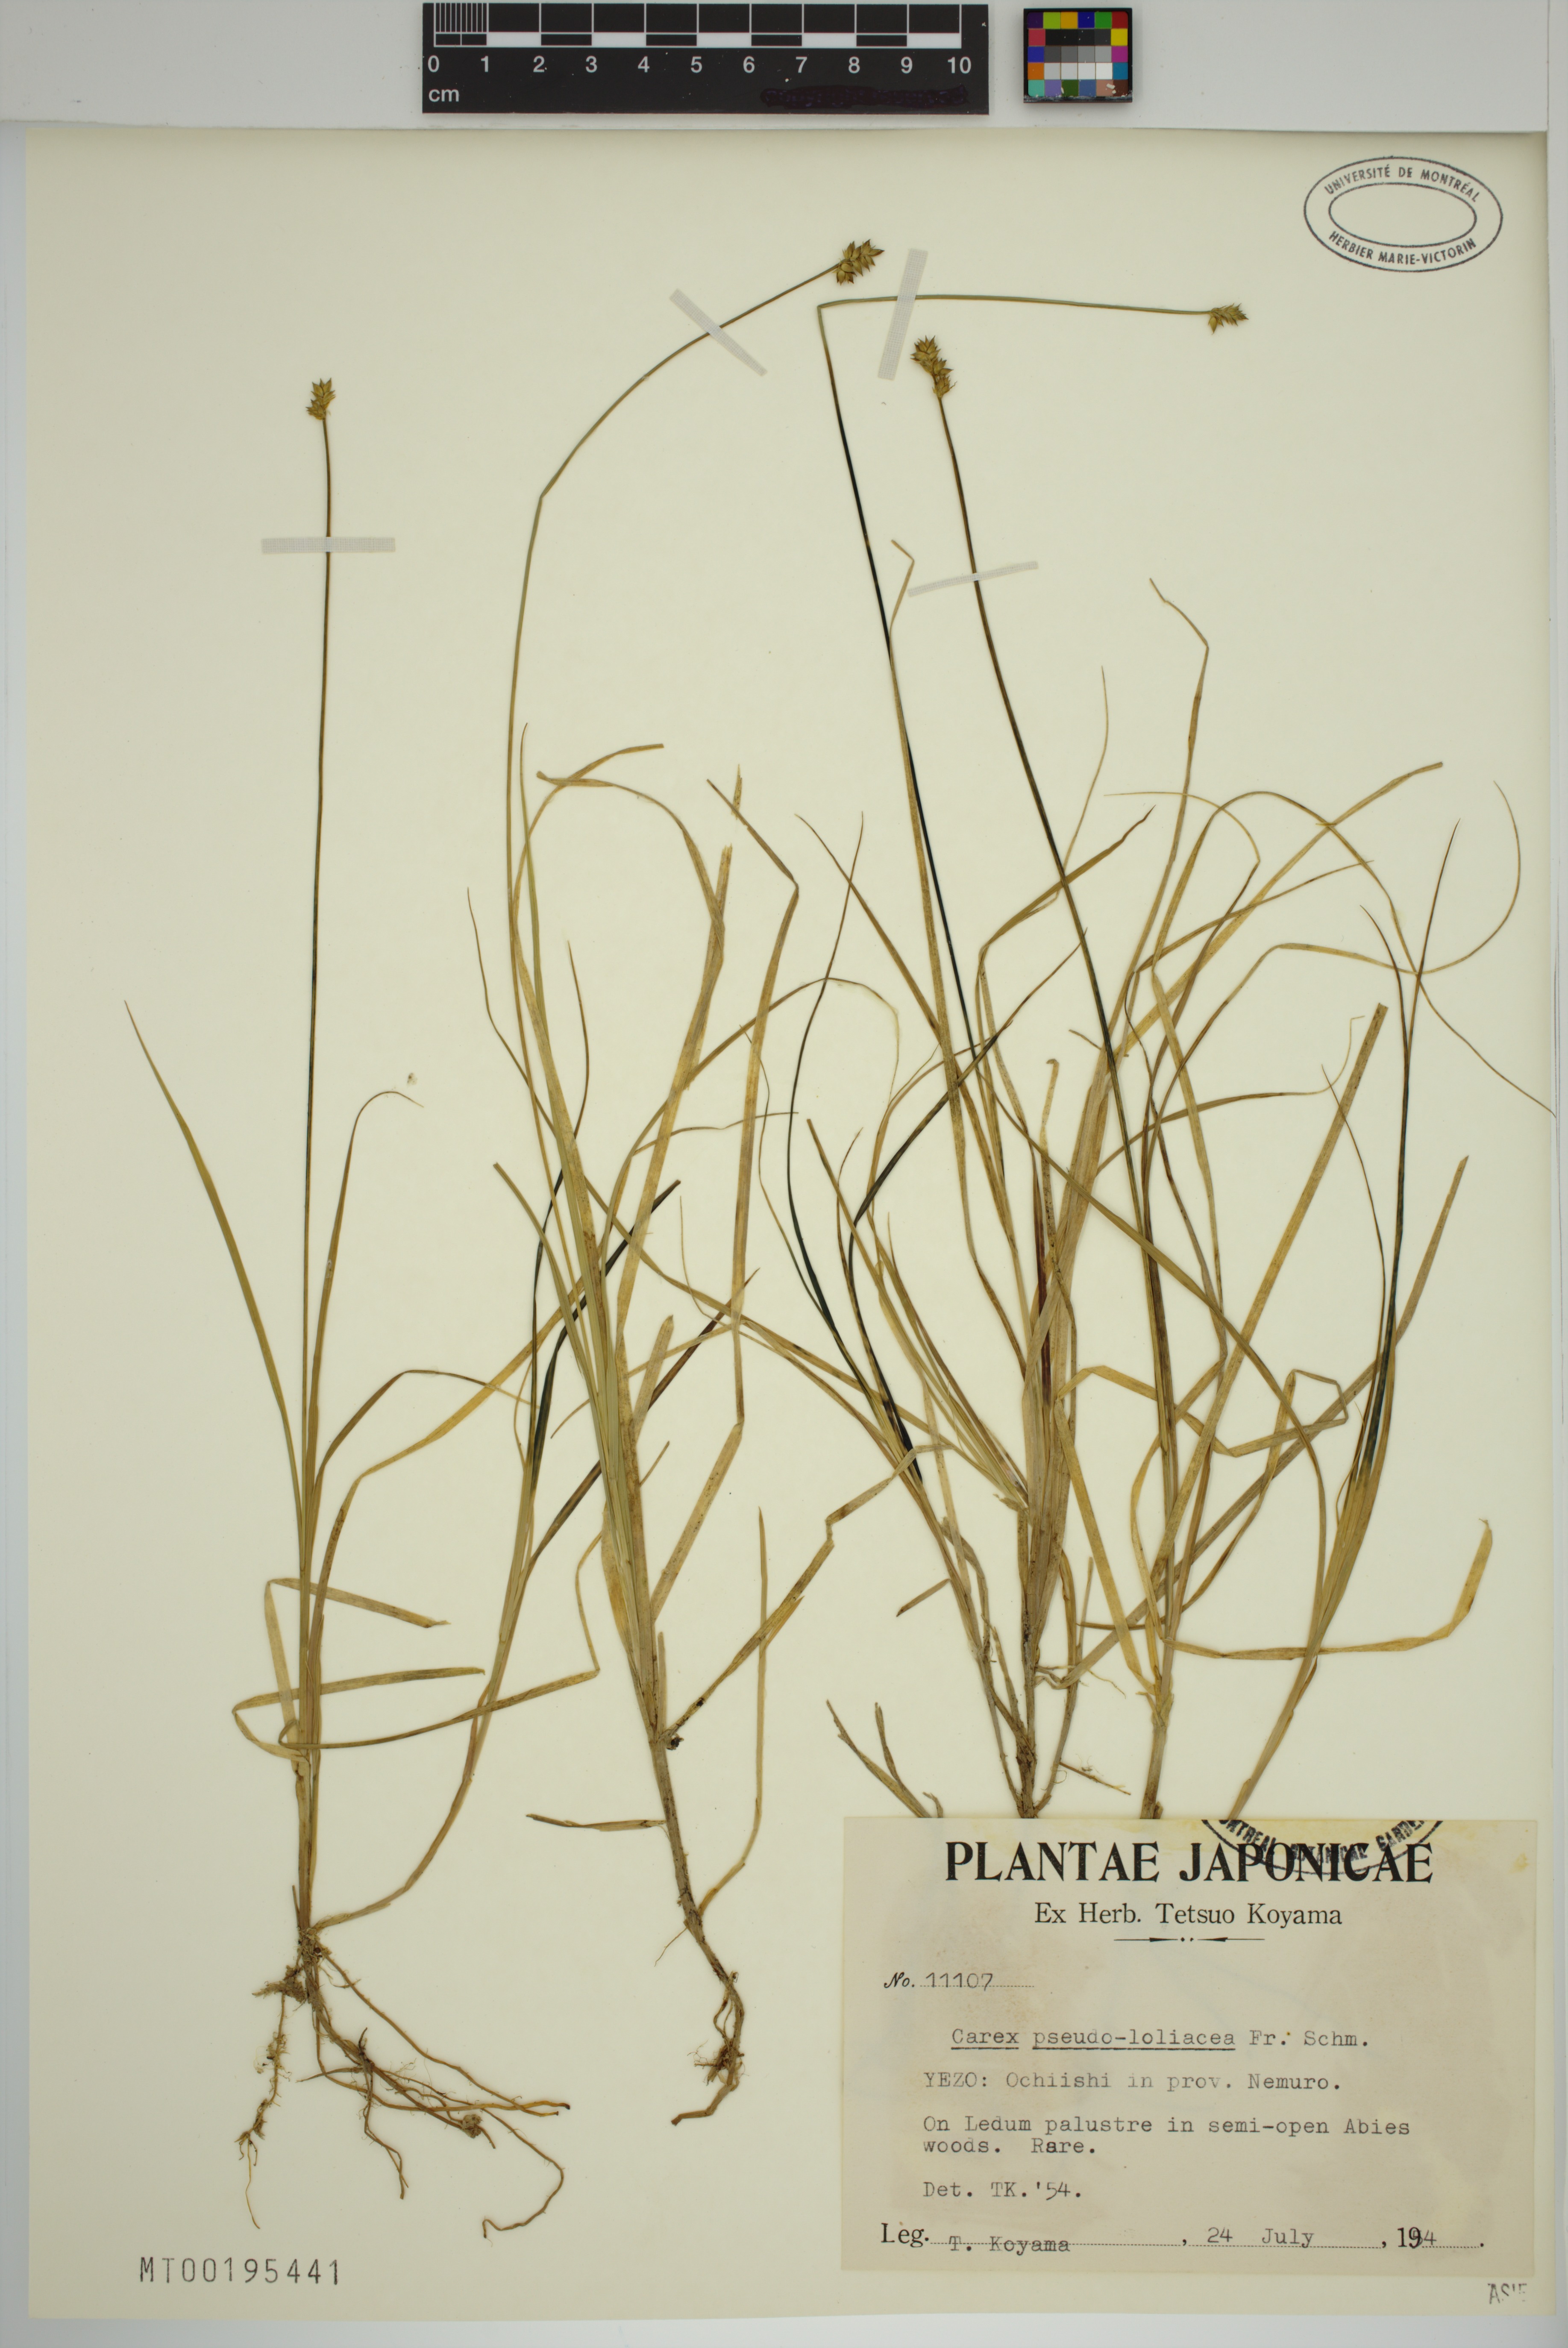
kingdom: Plantae
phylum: Tracheophyta
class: Liliopsida
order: Poales
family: Cyperaceae
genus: Carex
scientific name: Carex pseudololiacea
